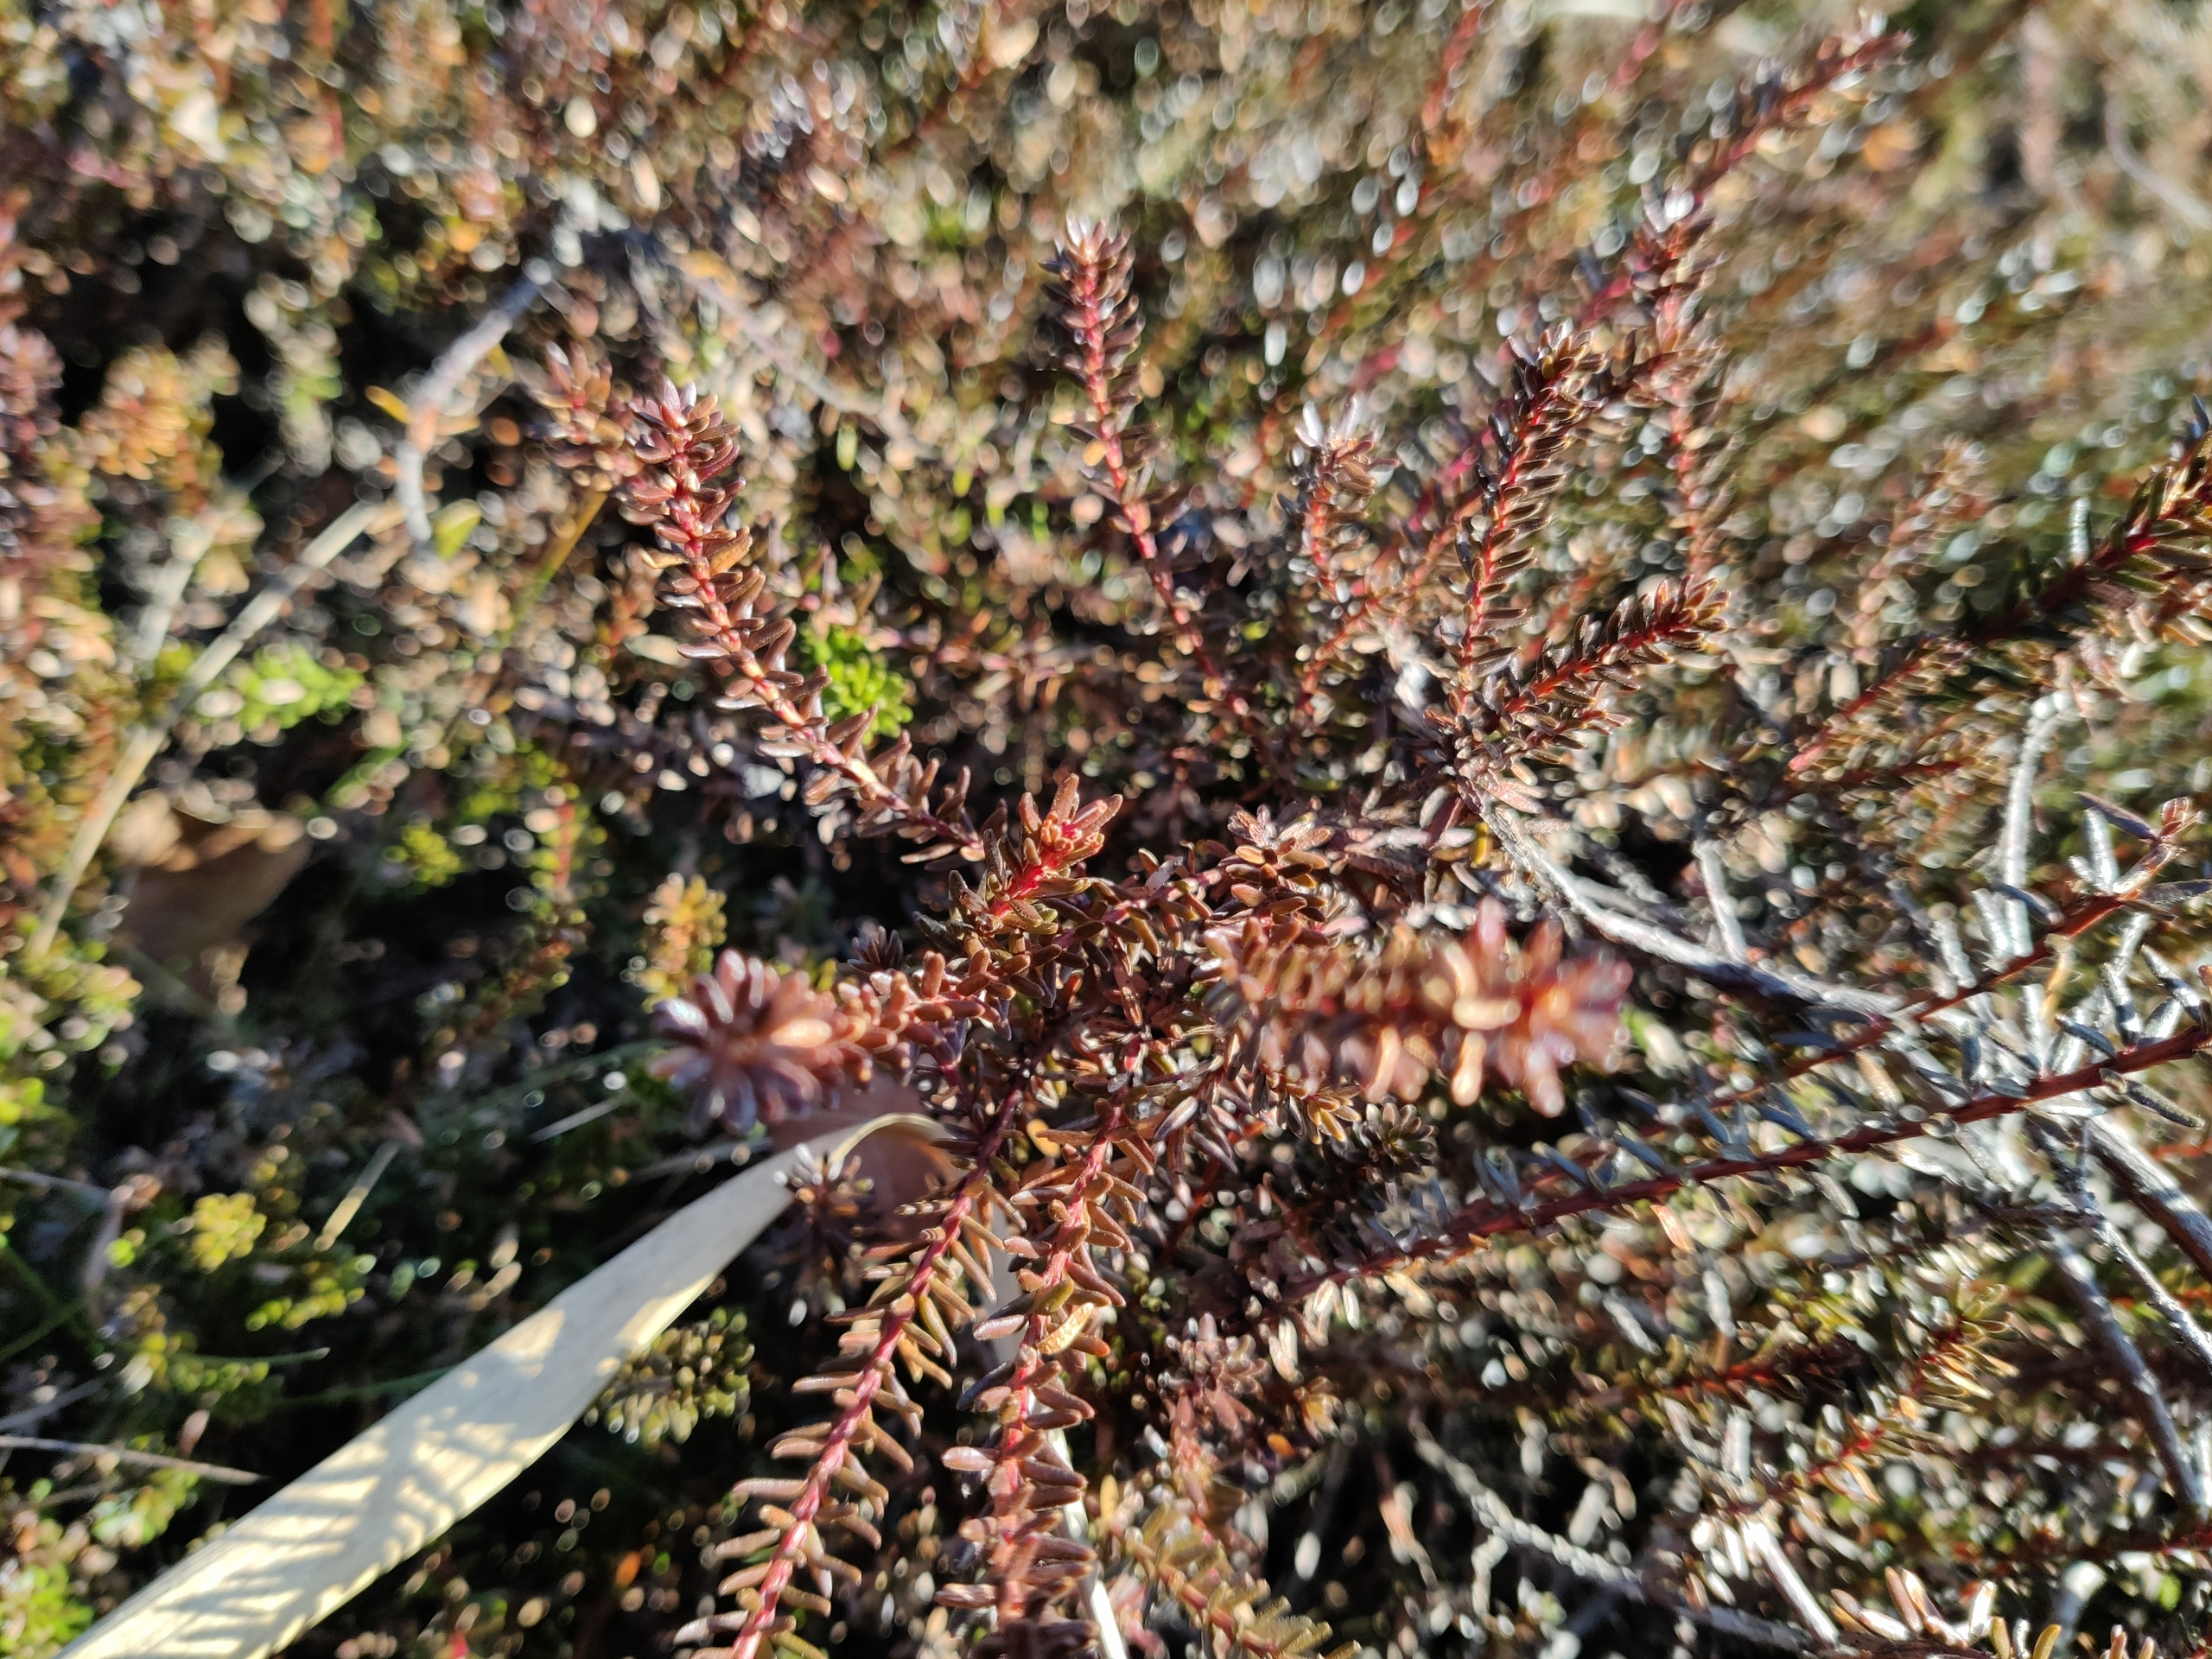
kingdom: Plantae
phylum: Tracheophyta
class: Magnoliopsida
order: Ericales
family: Ericaceae
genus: Empetrum
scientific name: Empetrum nigrum
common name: Revling
